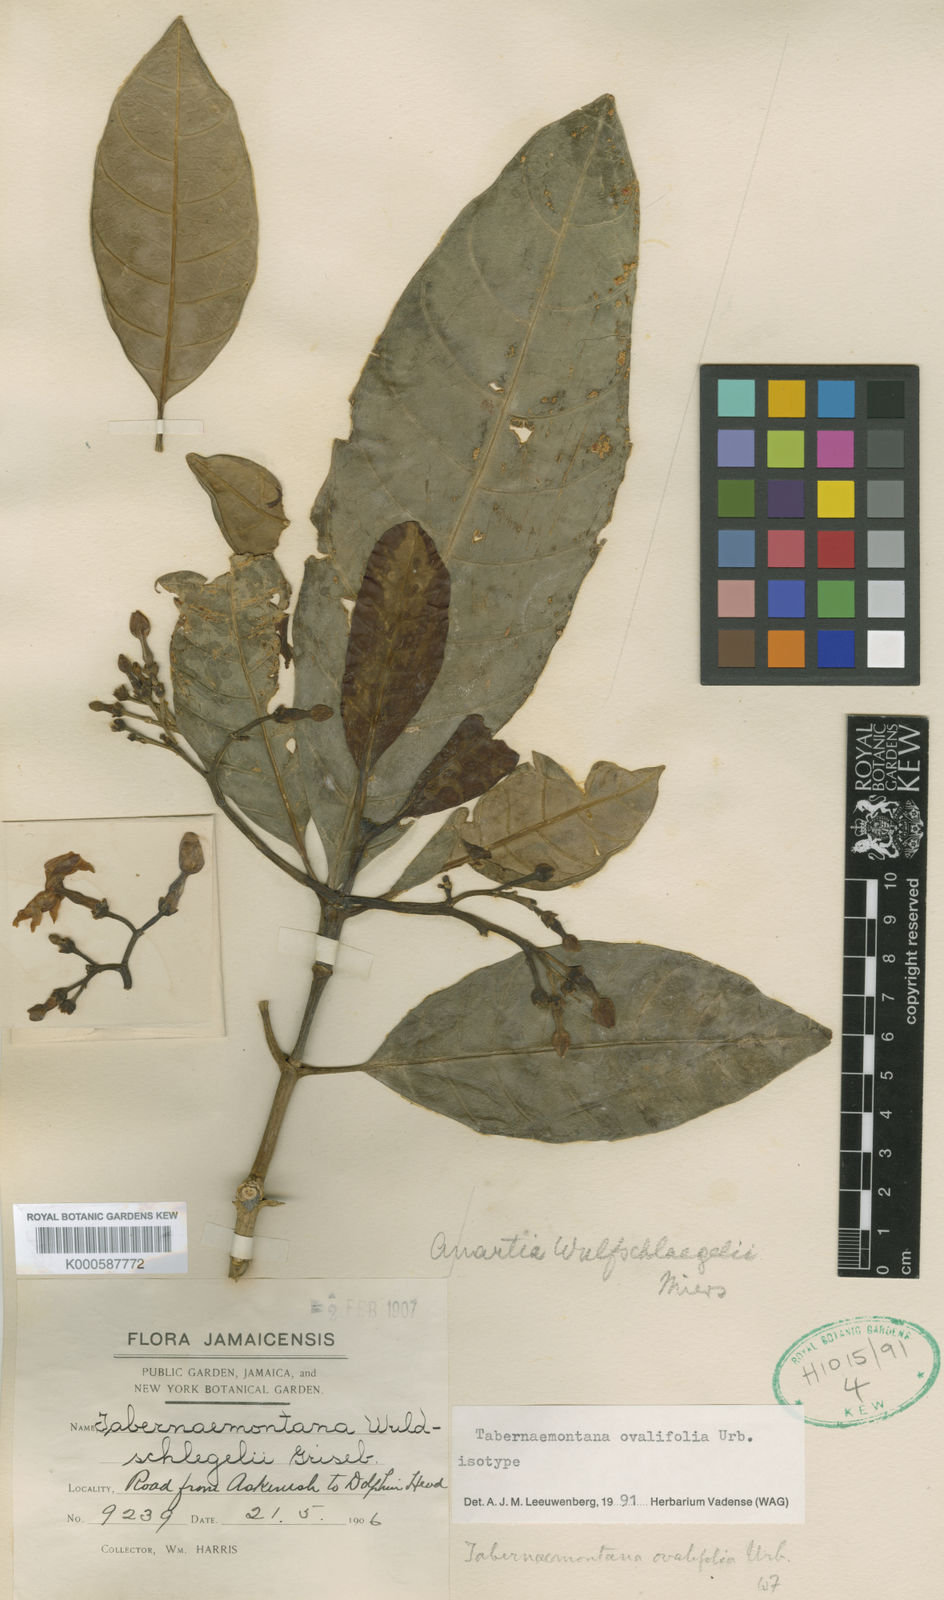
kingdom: Plantae
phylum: Tracheophyta
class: Magnoliopsida
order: Gentianales
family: Apocynaceae
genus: Tabernaemontana
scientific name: Tabernaemontana ovalifolia
